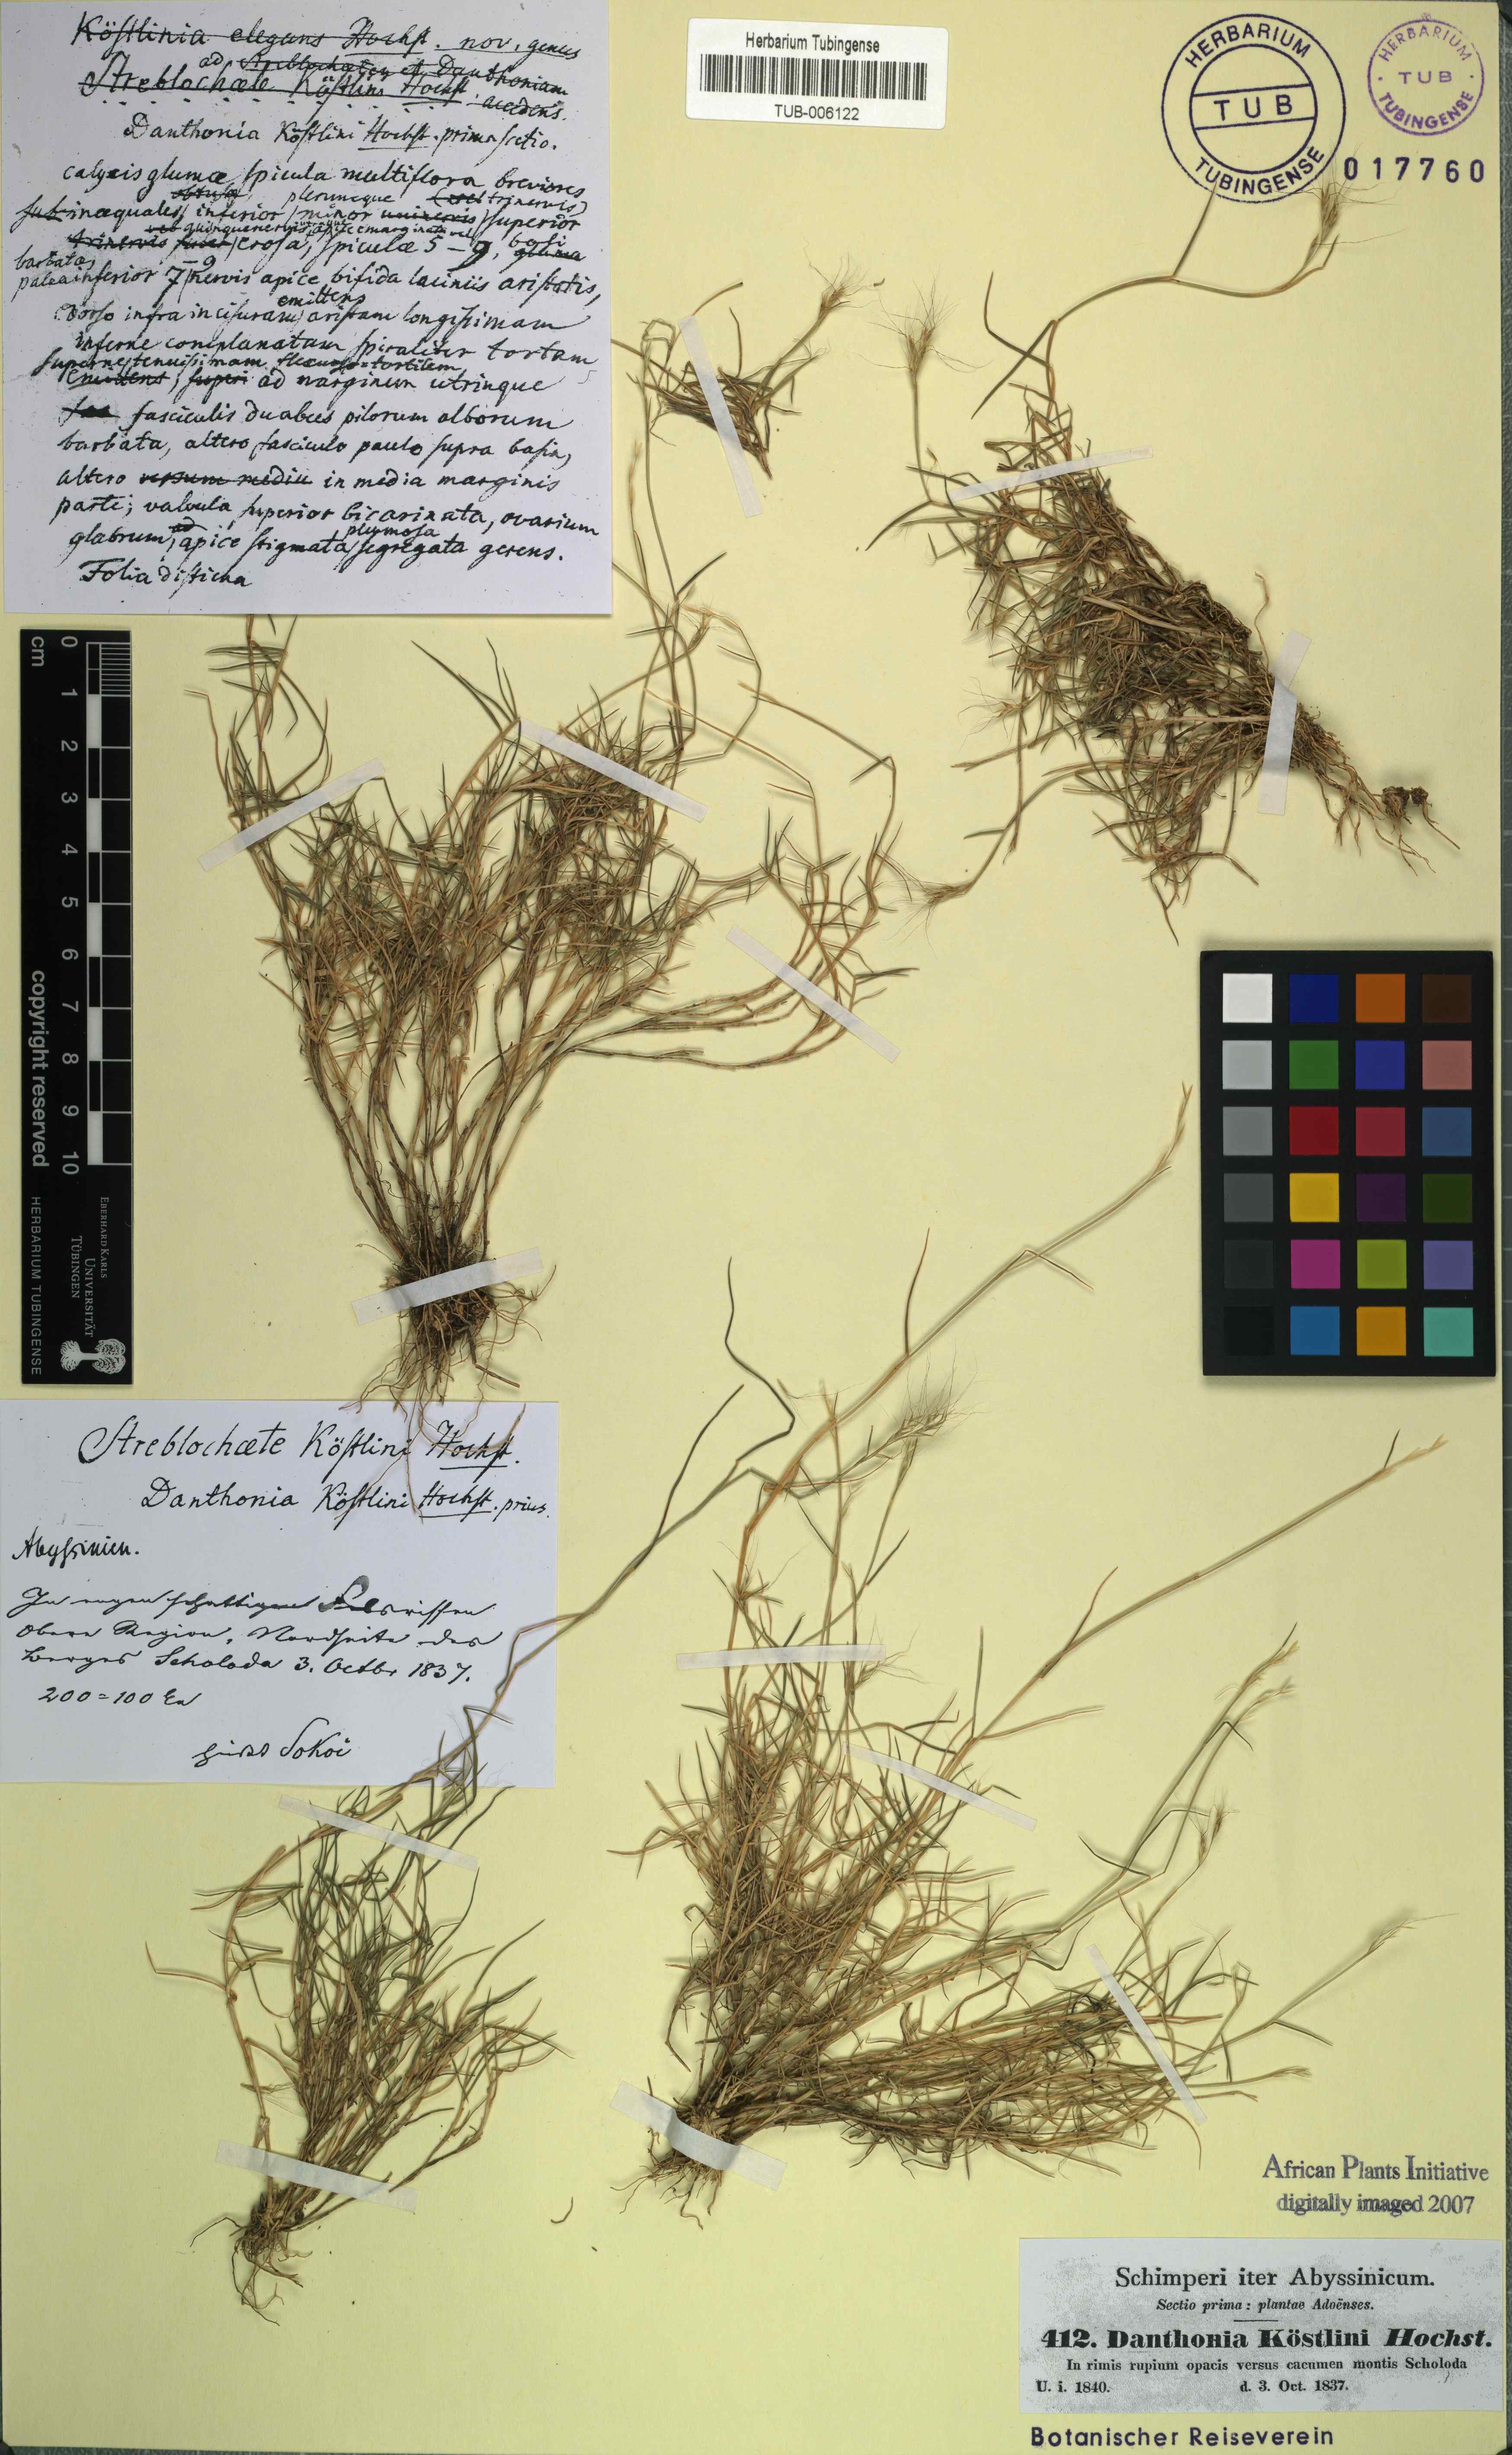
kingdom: Plantae
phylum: Tracheophyta
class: Liliopsida
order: Poales
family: Poaceae
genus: Koordersiochloa
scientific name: Koordersiochloa longiarista
